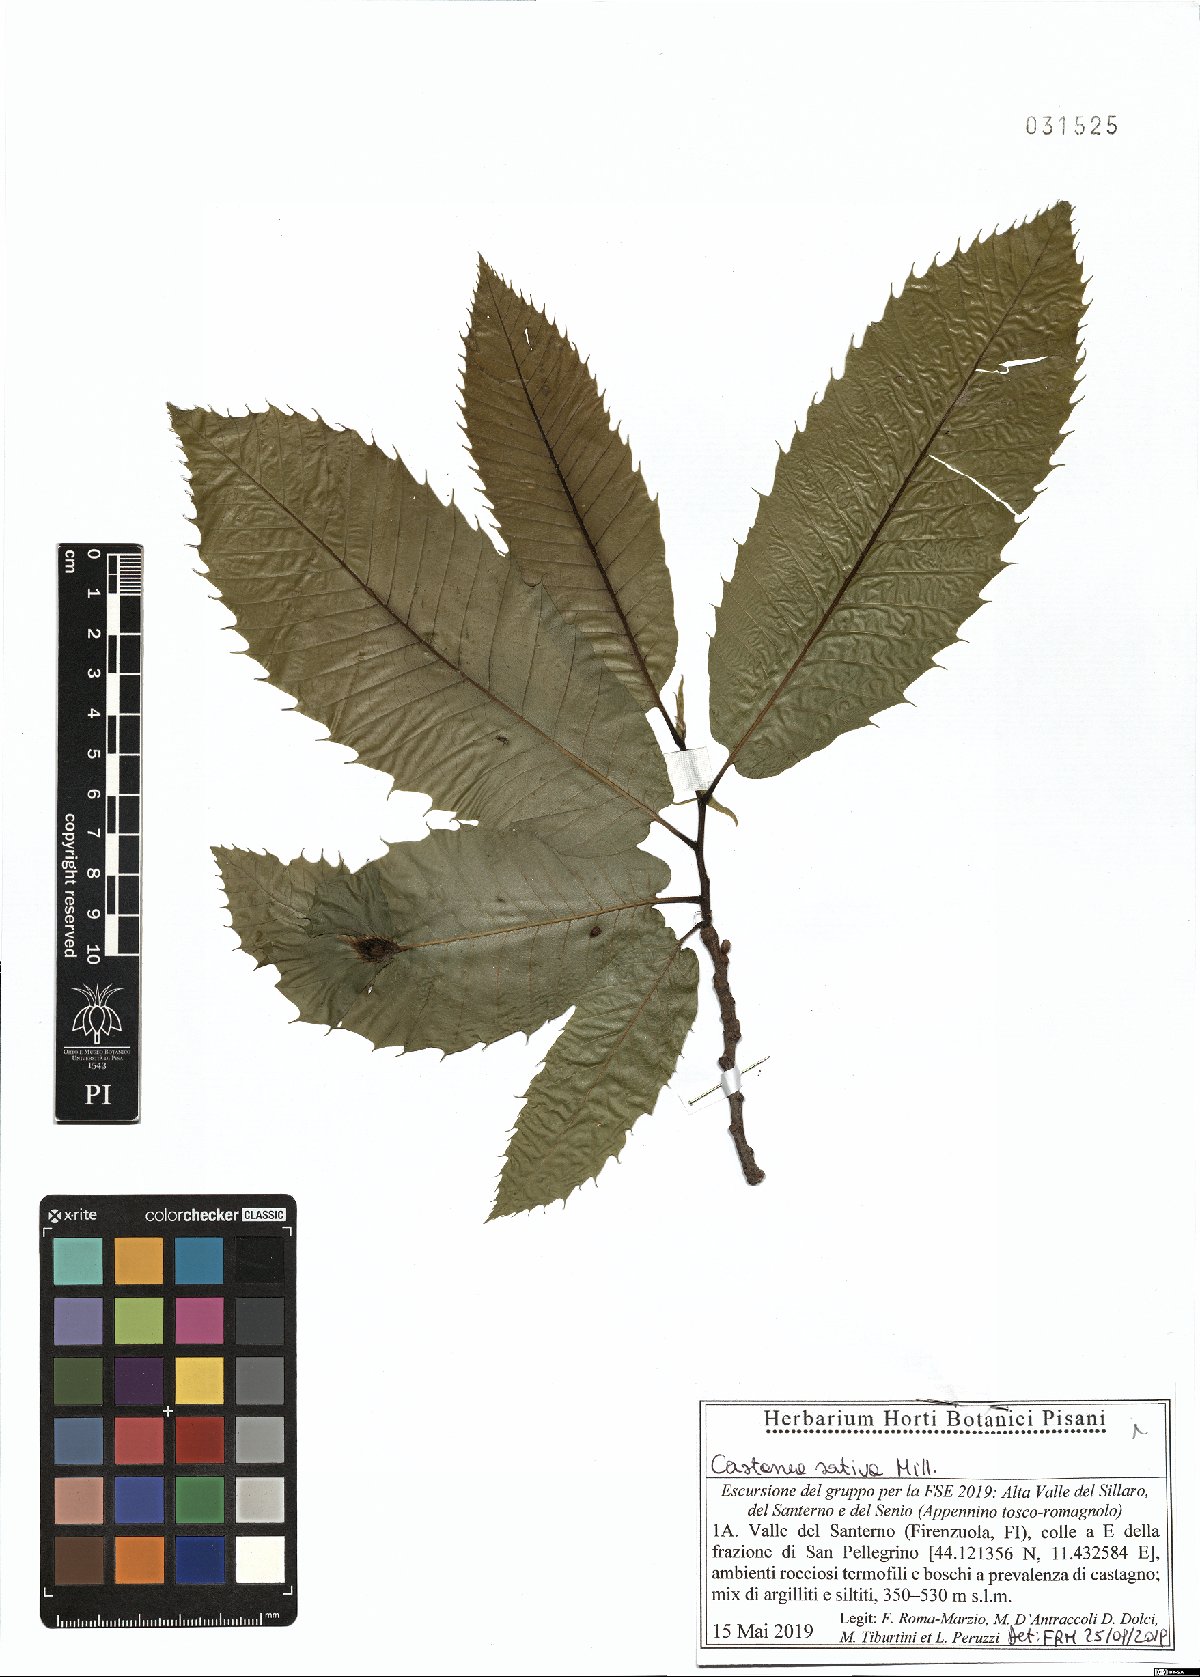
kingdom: Plantae
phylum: Tracheophyta
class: Magnoliopsida
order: Fagales
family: Fagaceae
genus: Castanea
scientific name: Castanea sativa
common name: Sweet chestnut
